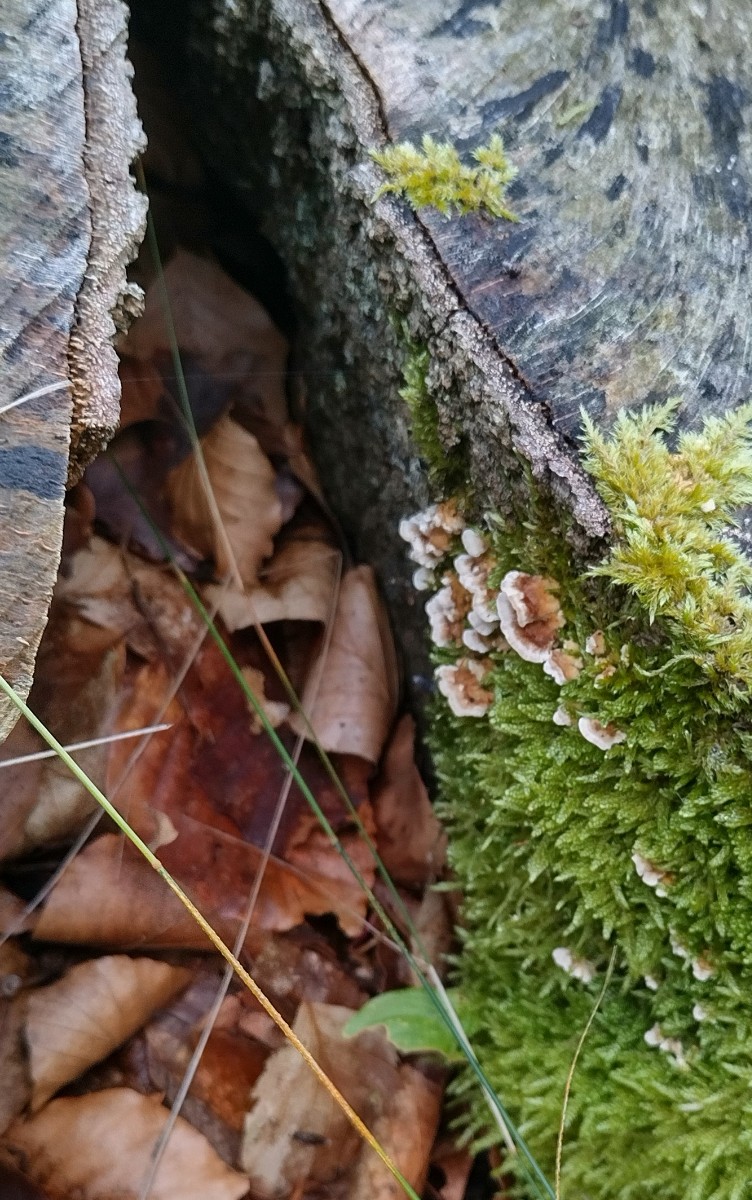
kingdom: Fungi
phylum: Basidiomycota
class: Agaricomycetes
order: Polyporales
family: Polyporaceae
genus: Trametes
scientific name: Trametes versicolor
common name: broget læderporesvamp
